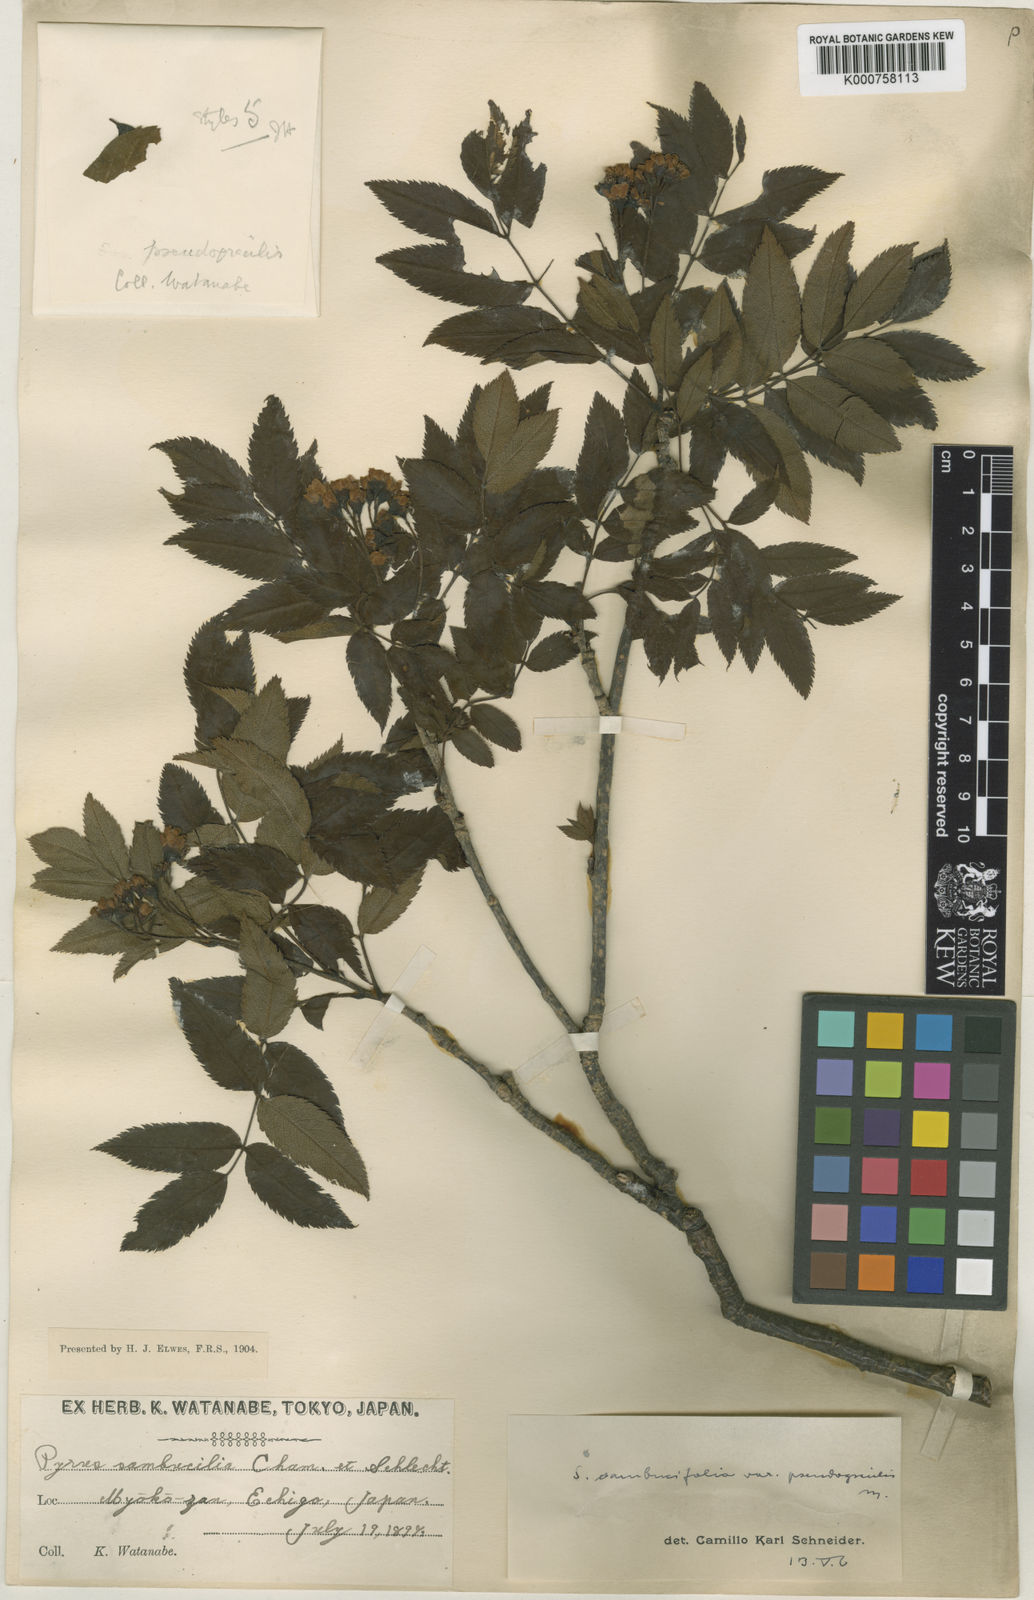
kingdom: Plantae
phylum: Tracheophyta
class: Magnoliopsida
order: Rosales
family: Rosaceae
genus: Sorbus
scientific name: Sorbus sambucifolia
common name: Siberian mountain-ash
